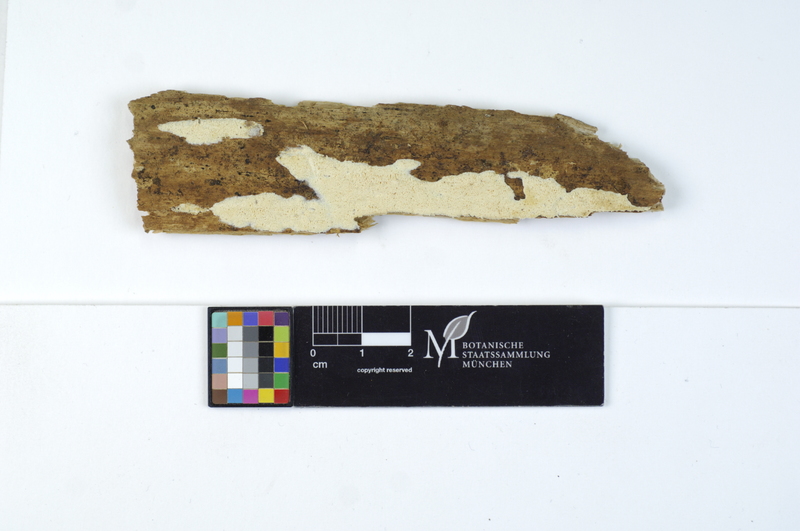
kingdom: Plantae
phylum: Tracheophyta
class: Pinopsida
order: Pinales
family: Pinaceae
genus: Pinus
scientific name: Pinus
